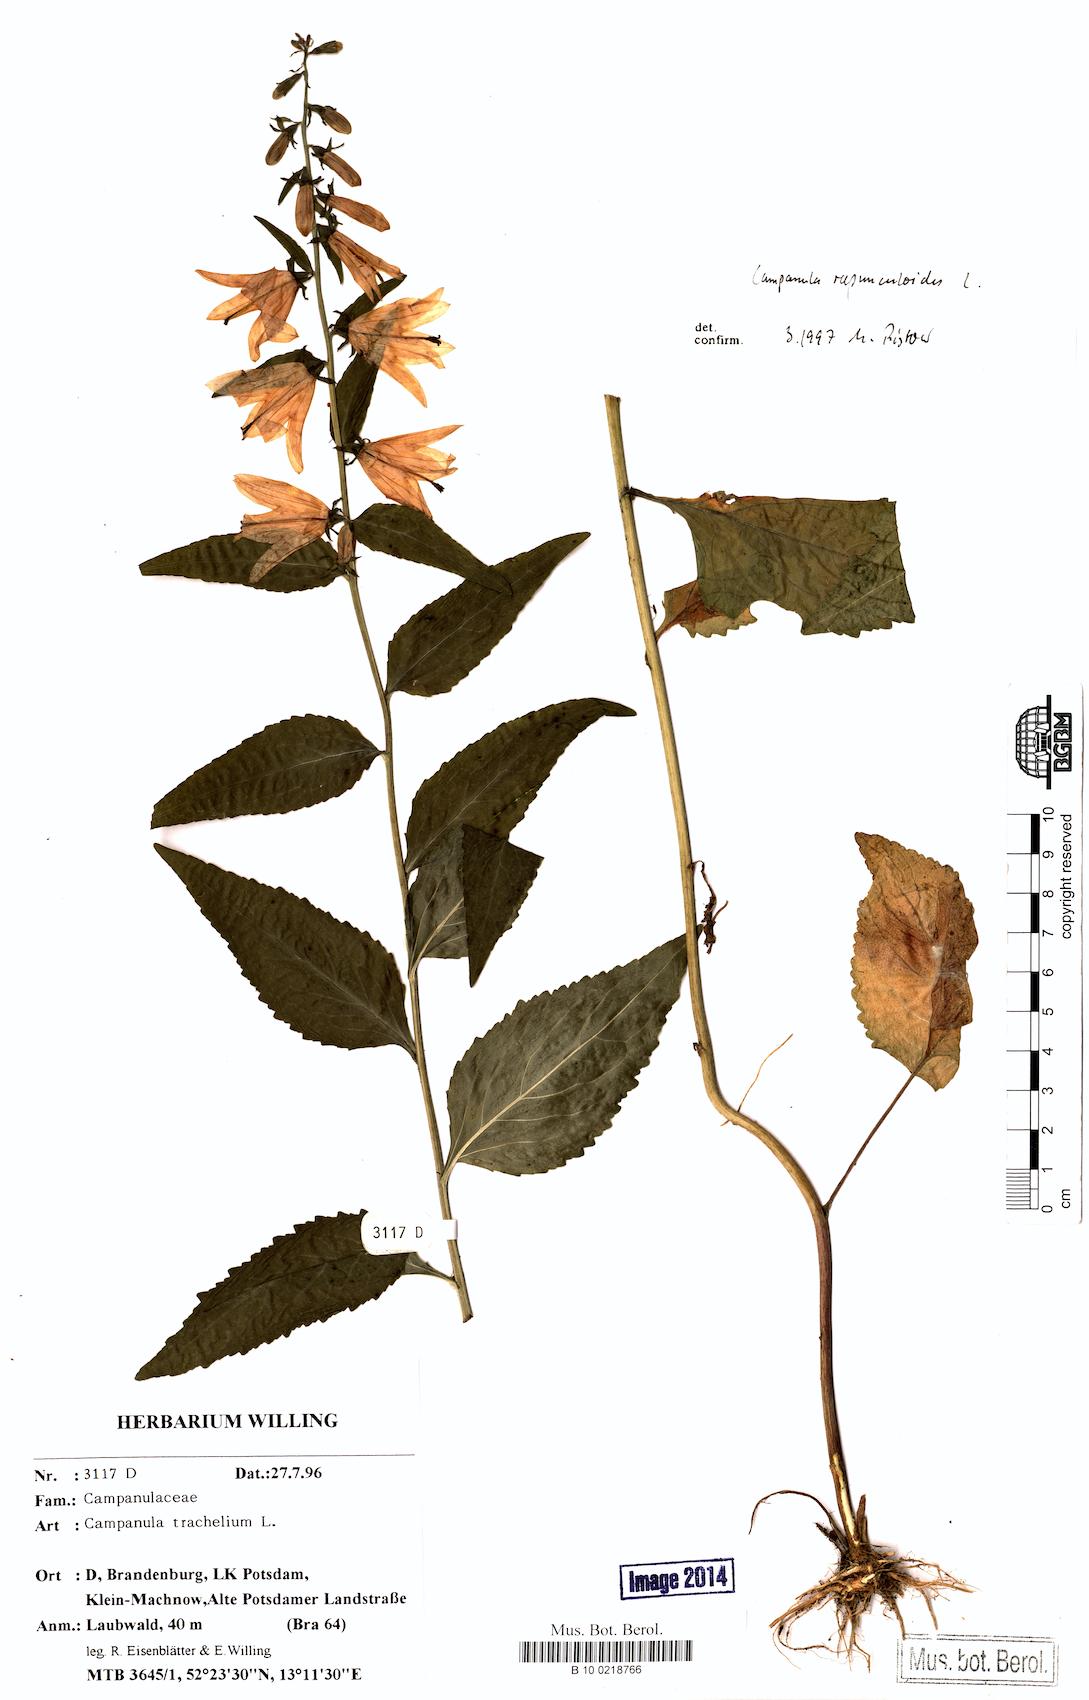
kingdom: Plantae
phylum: Tracheophyta
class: Magnoliopsida
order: Asterales
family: Campanulaceae
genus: Campanula
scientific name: Campanula rapunculoides
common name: Creeping bellflower
